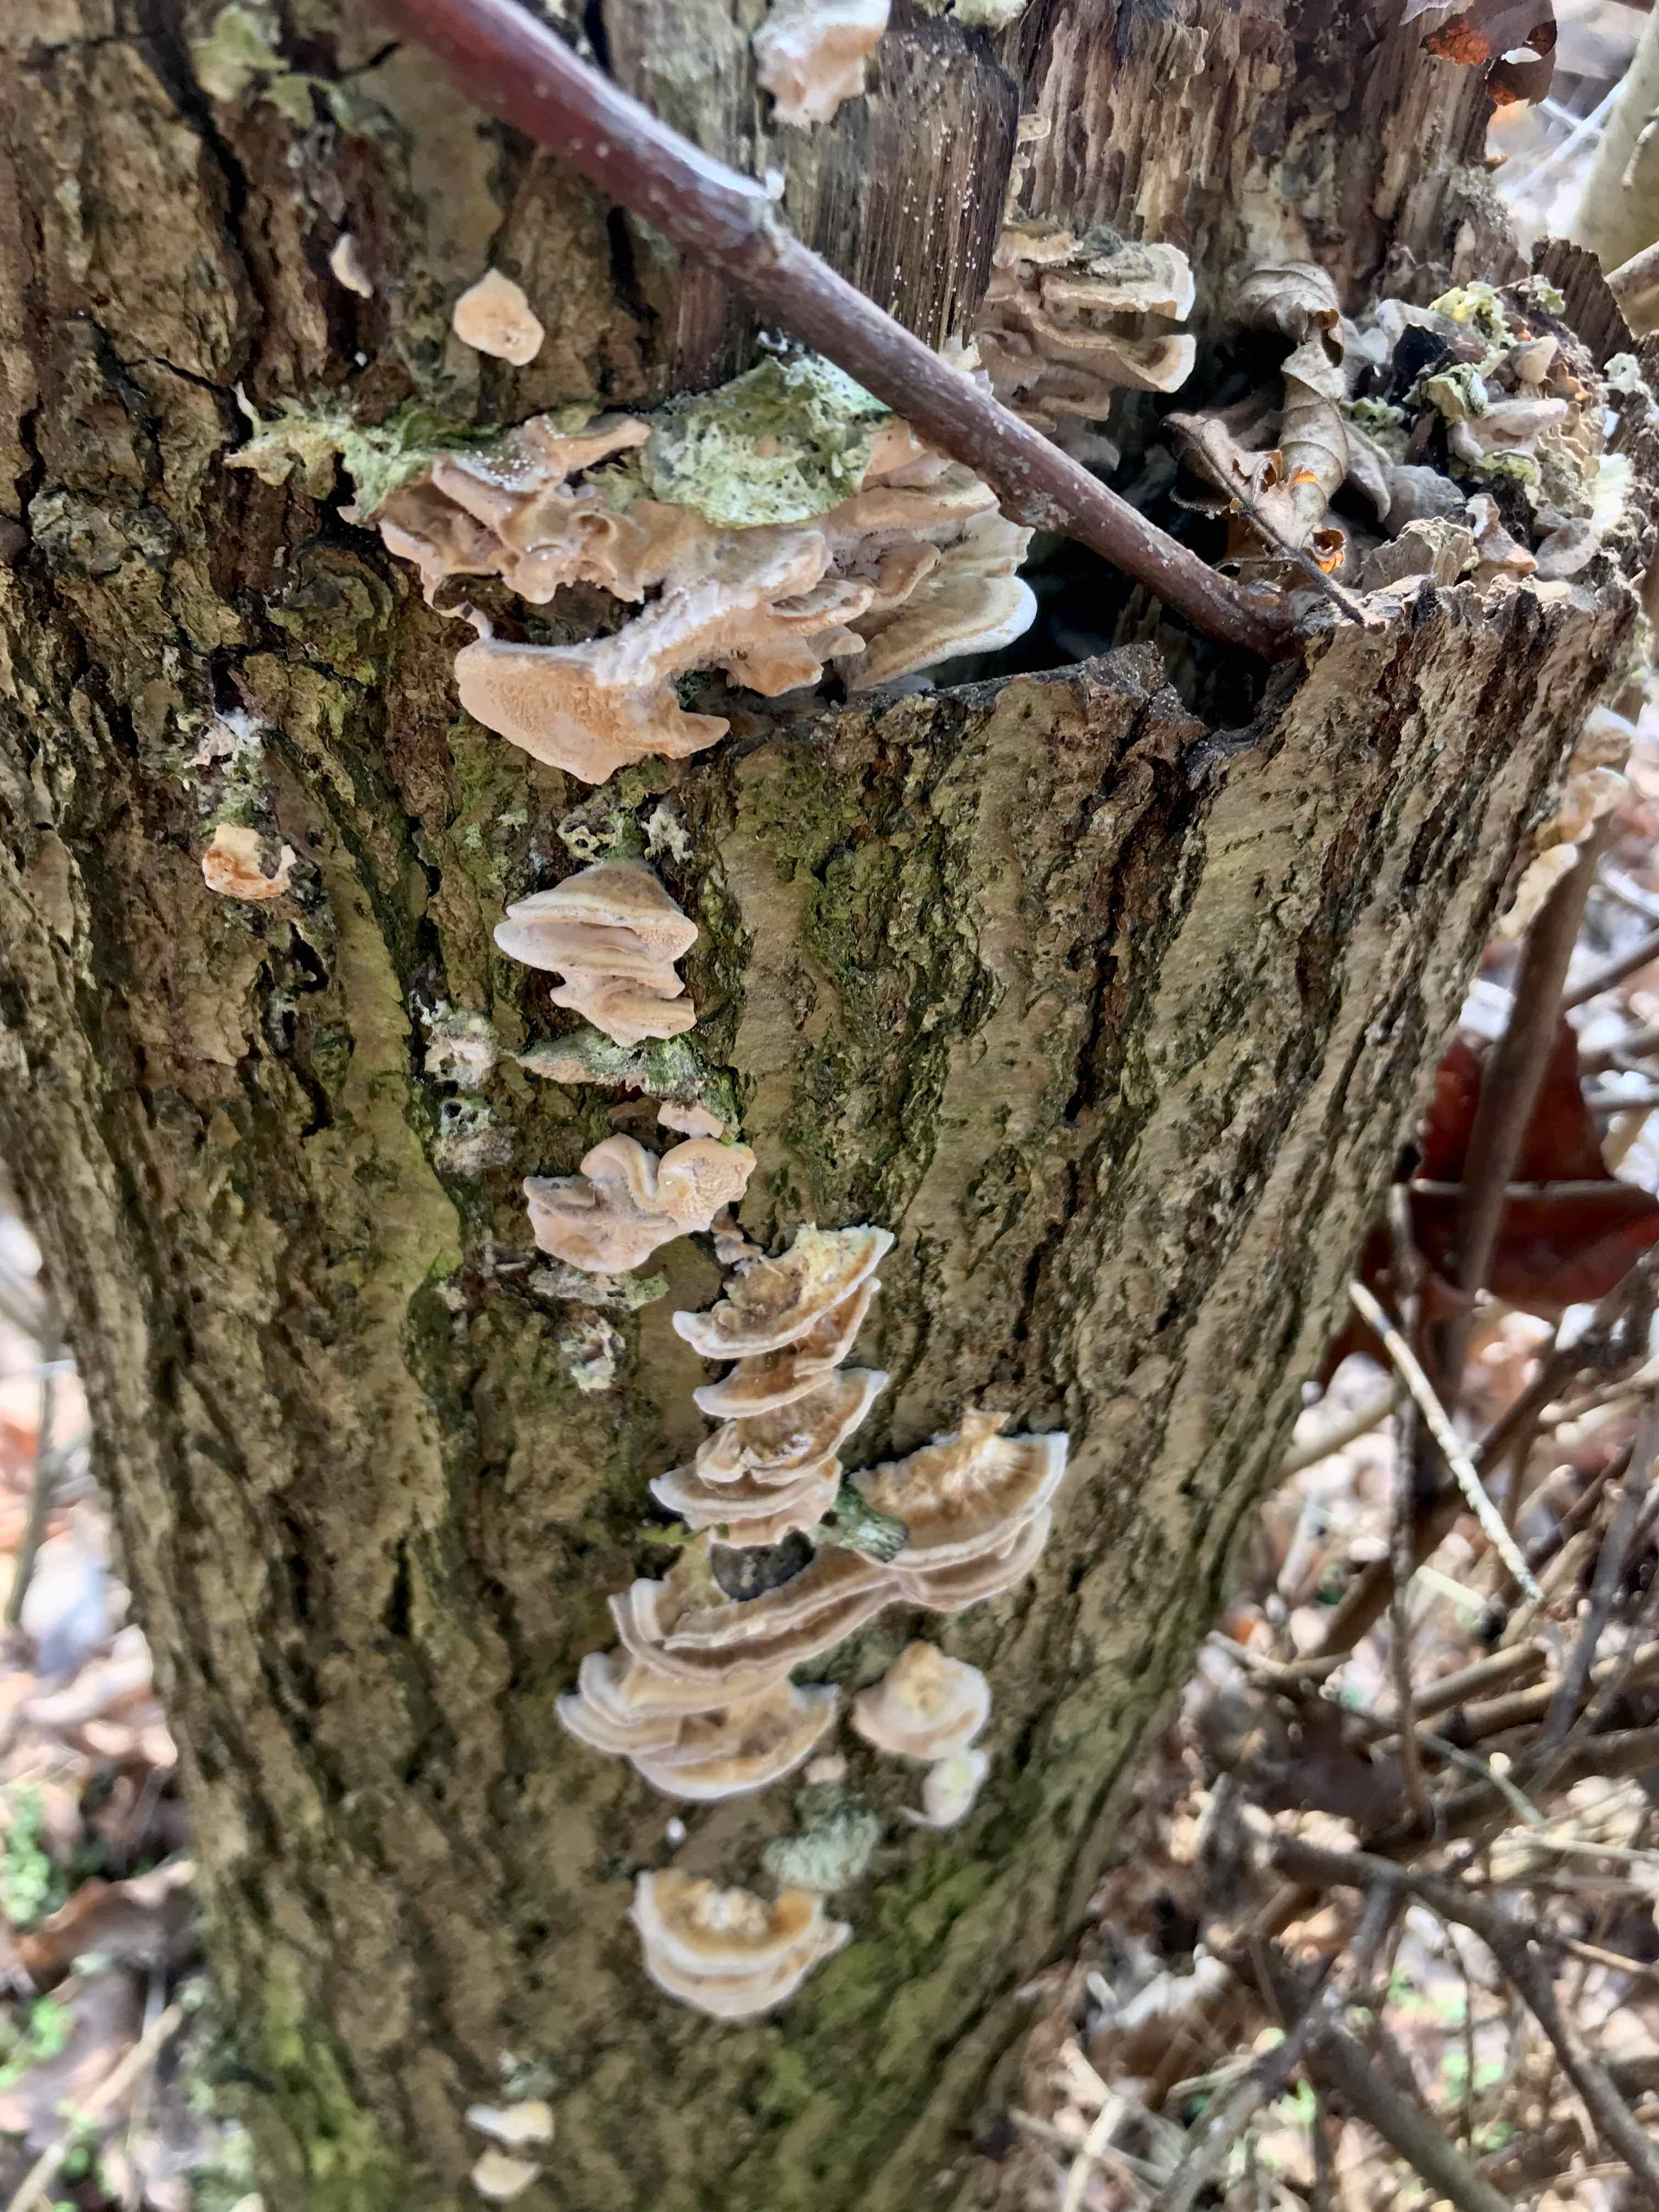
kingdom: Fungi
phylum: Basidiomycota
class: Agaricomycetes
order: Polyporales
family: Phanerochaetaceae
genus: Bjerkandera
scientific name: Bjerkandera fumosa
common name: grågul sodporesvamp
